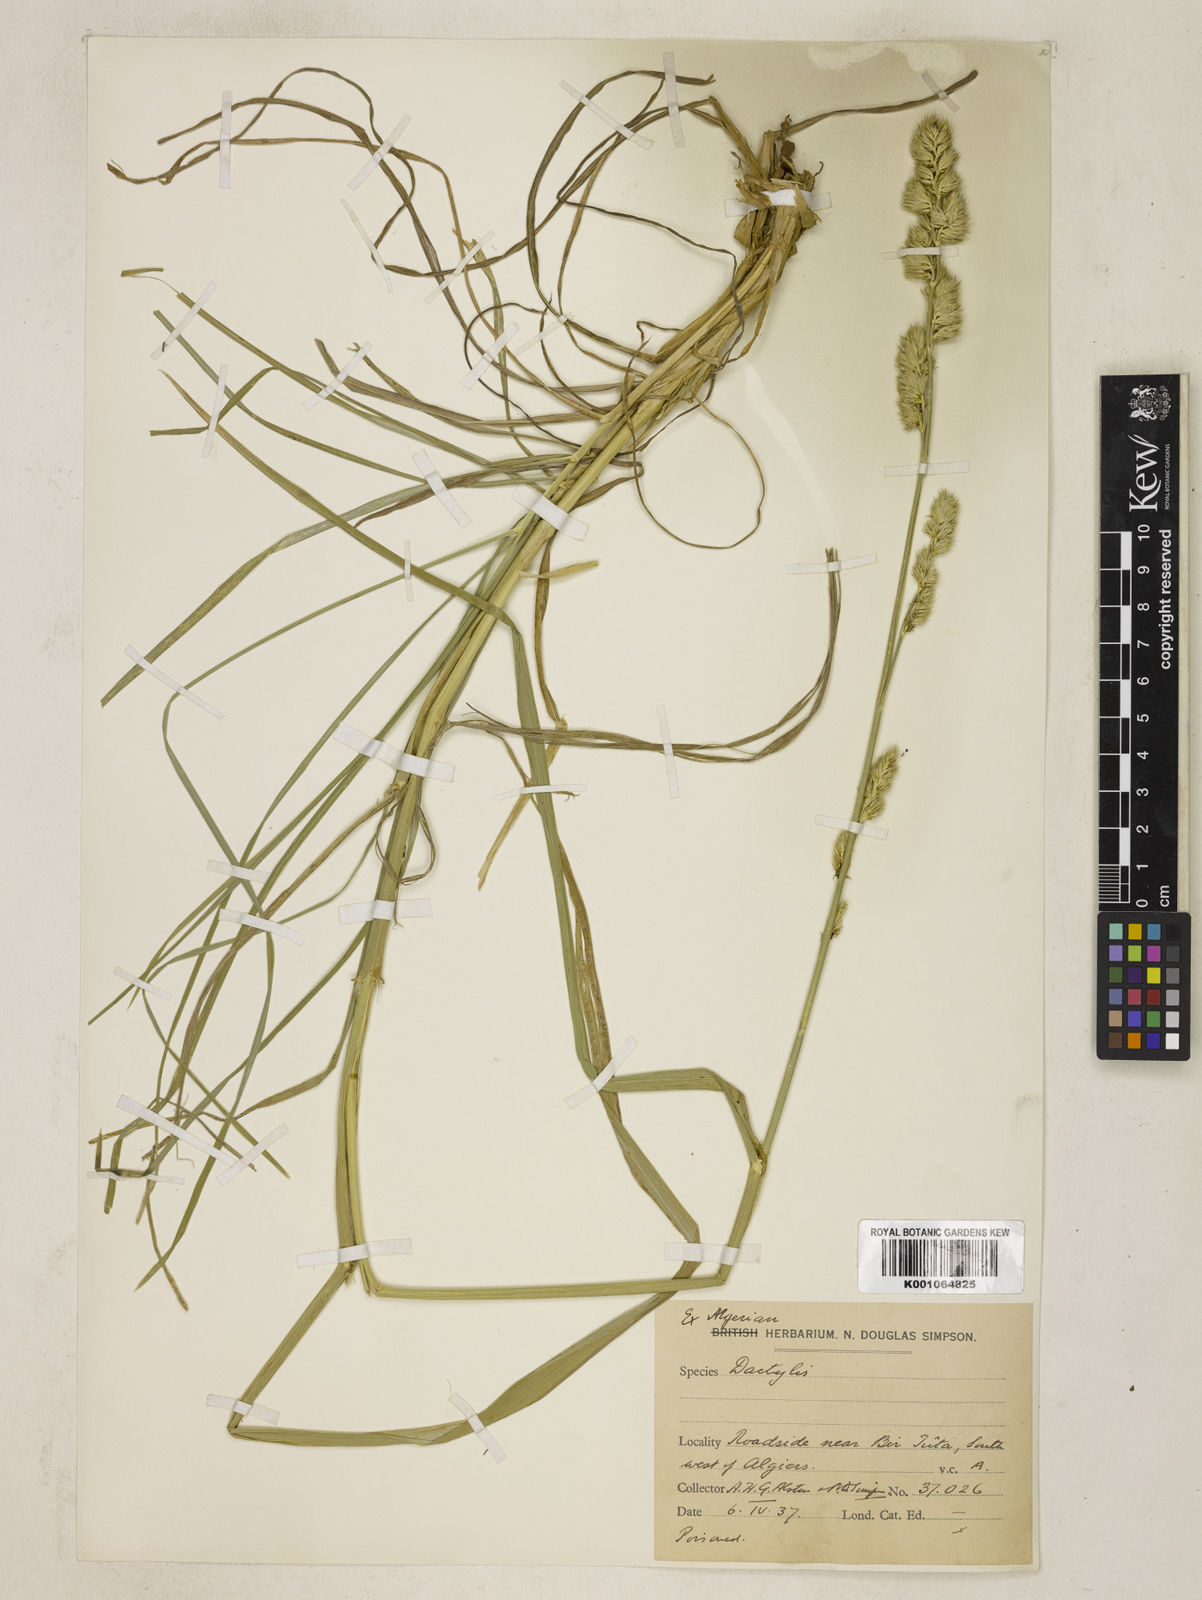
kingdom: Plantae
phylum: Tracheophyta
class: Liliopsida
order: Poales
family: Poaceae
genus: Dactylis
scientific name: Dactylis glomerata
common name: Orchardgrass
